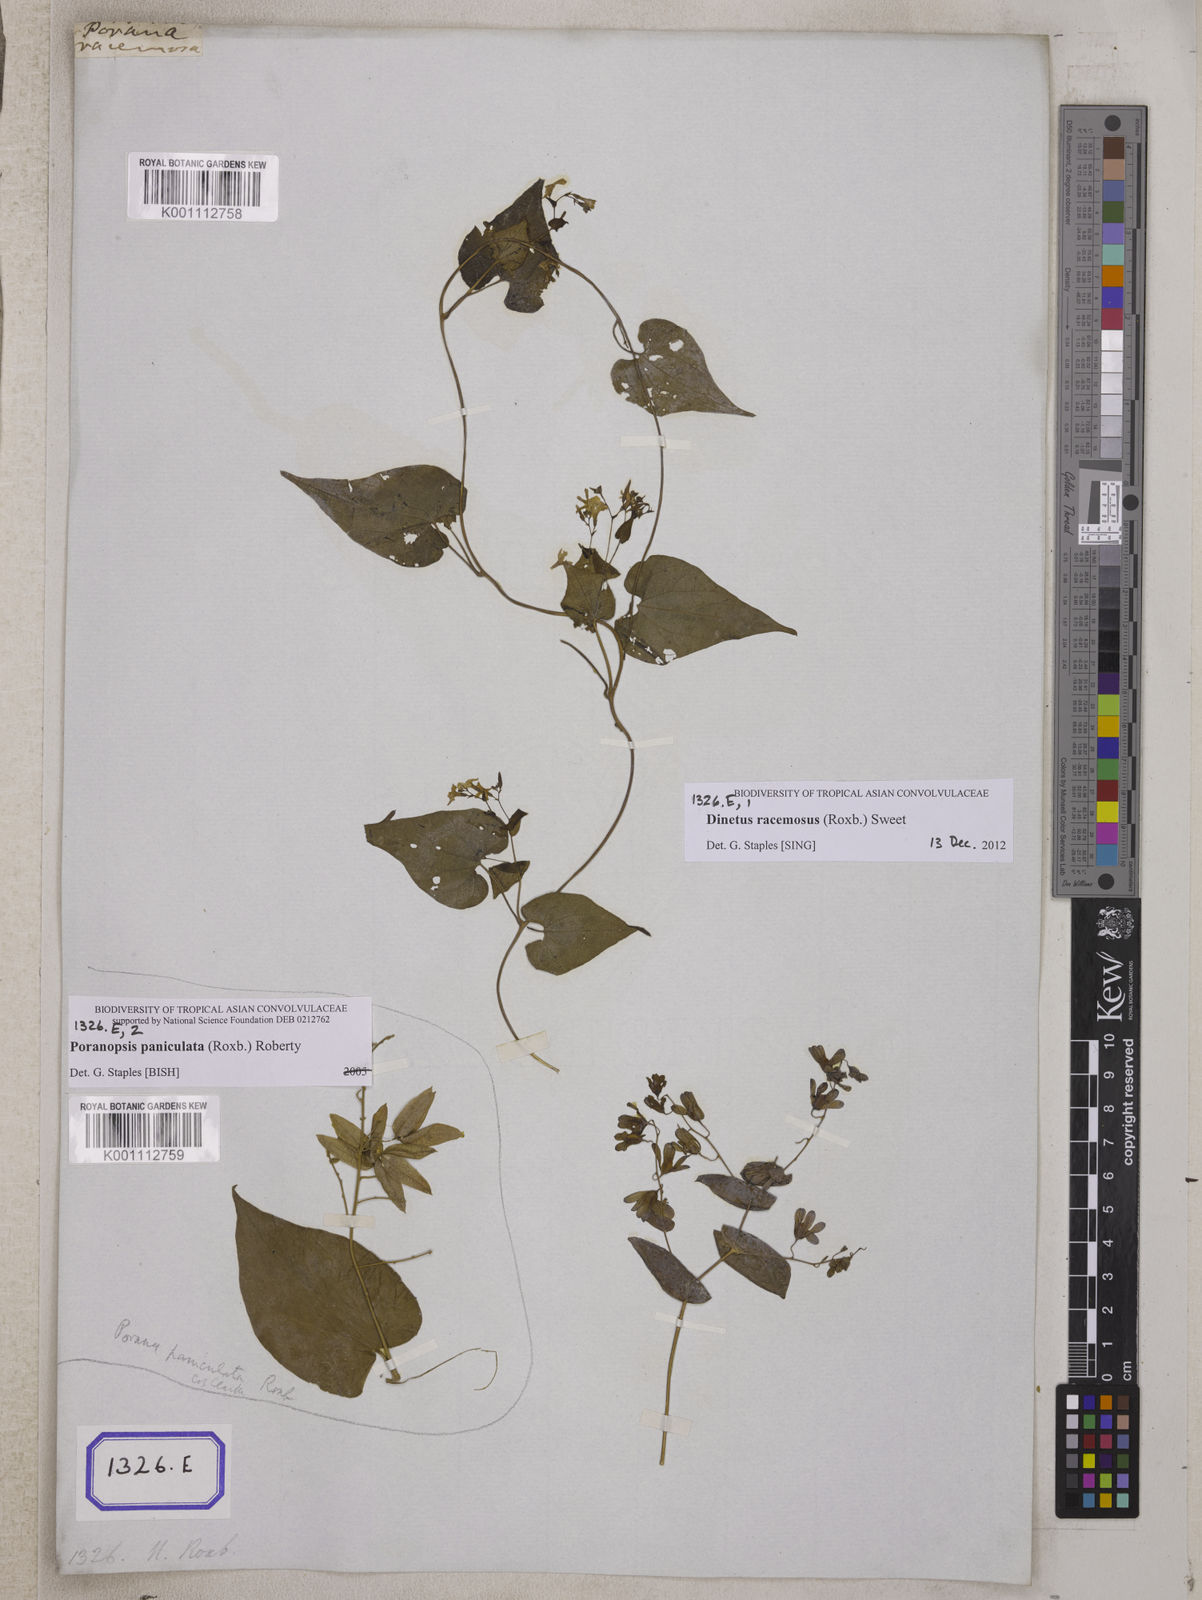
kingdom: Plantae
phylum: Tracheophyta
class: Magnoliopsida
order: Solanales
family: Convolvulaceae
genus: Porana
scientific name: Porana
